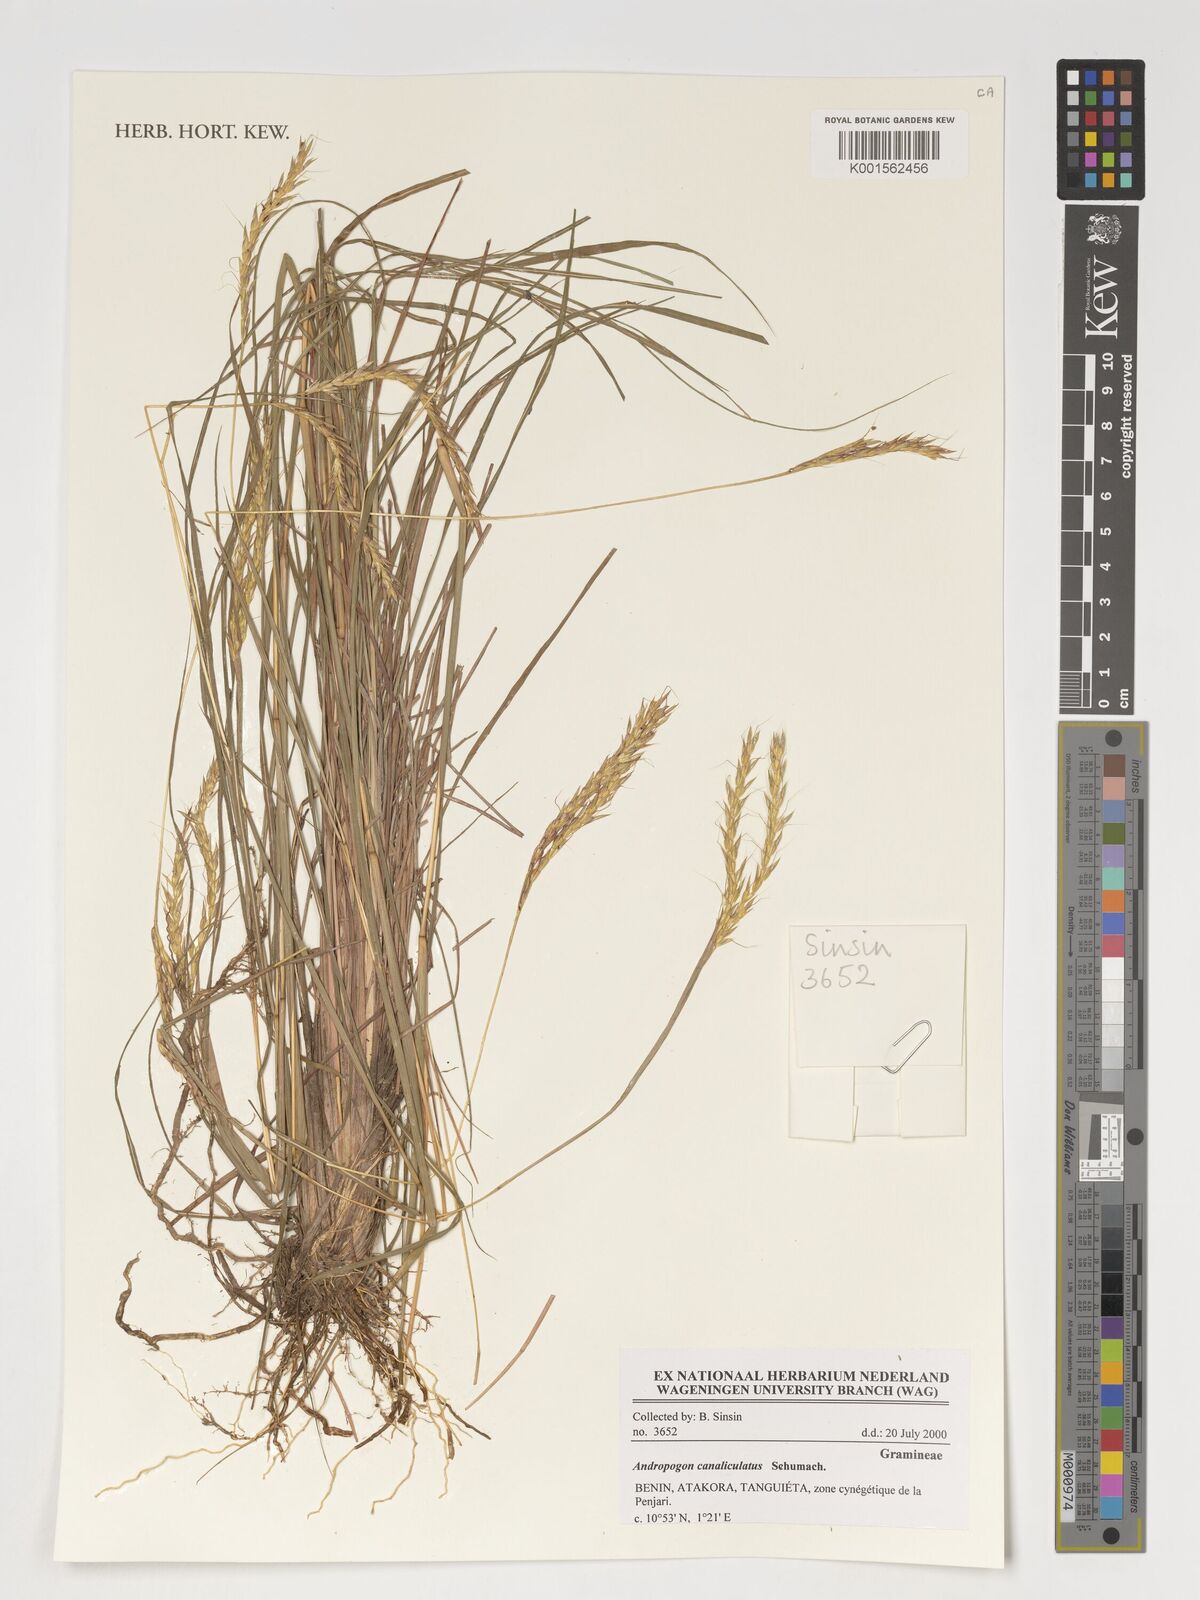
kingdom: Plantae
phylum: Tracheophyta
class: Liliopsida
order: Poales
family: Poaceae
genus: Andropogon
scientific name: Andropogon canaliculatus
